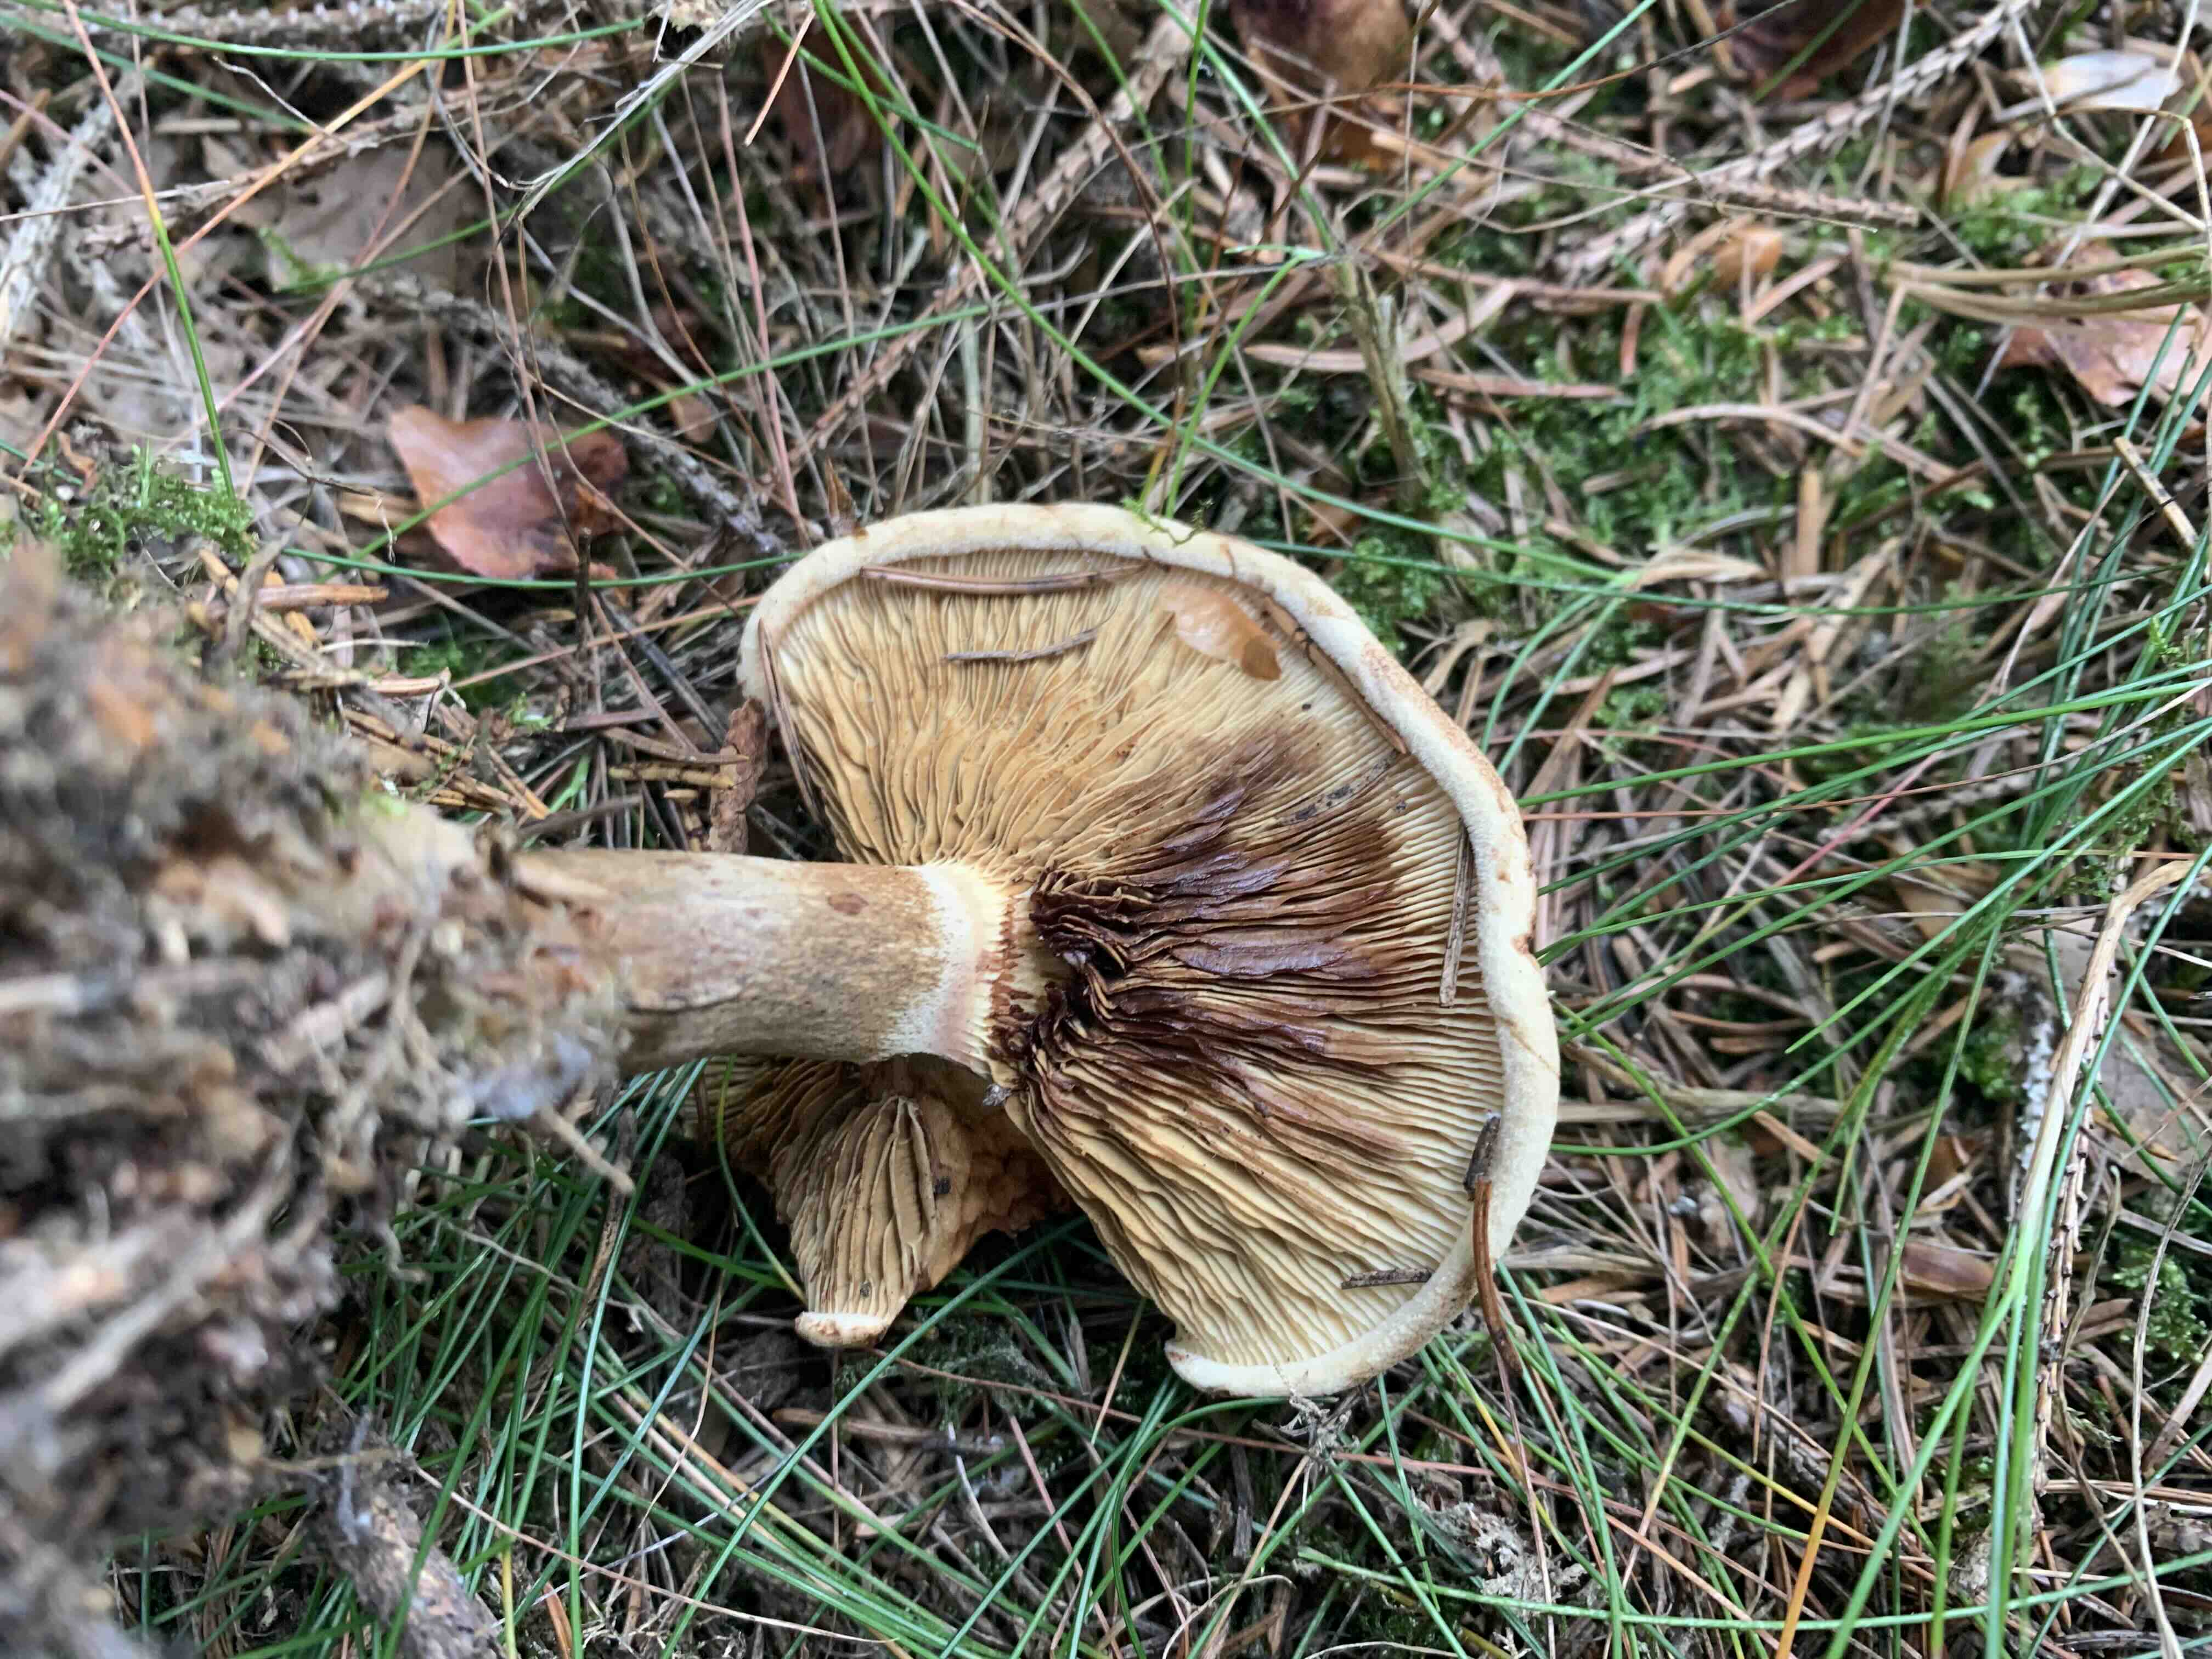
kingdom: Fungi
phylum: Basidiomycota
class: Agaricomycetes
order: Boletales
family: Paxillaceae
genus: Paxillus
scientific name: Paxillus involutus
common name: almindelig netbladhat
